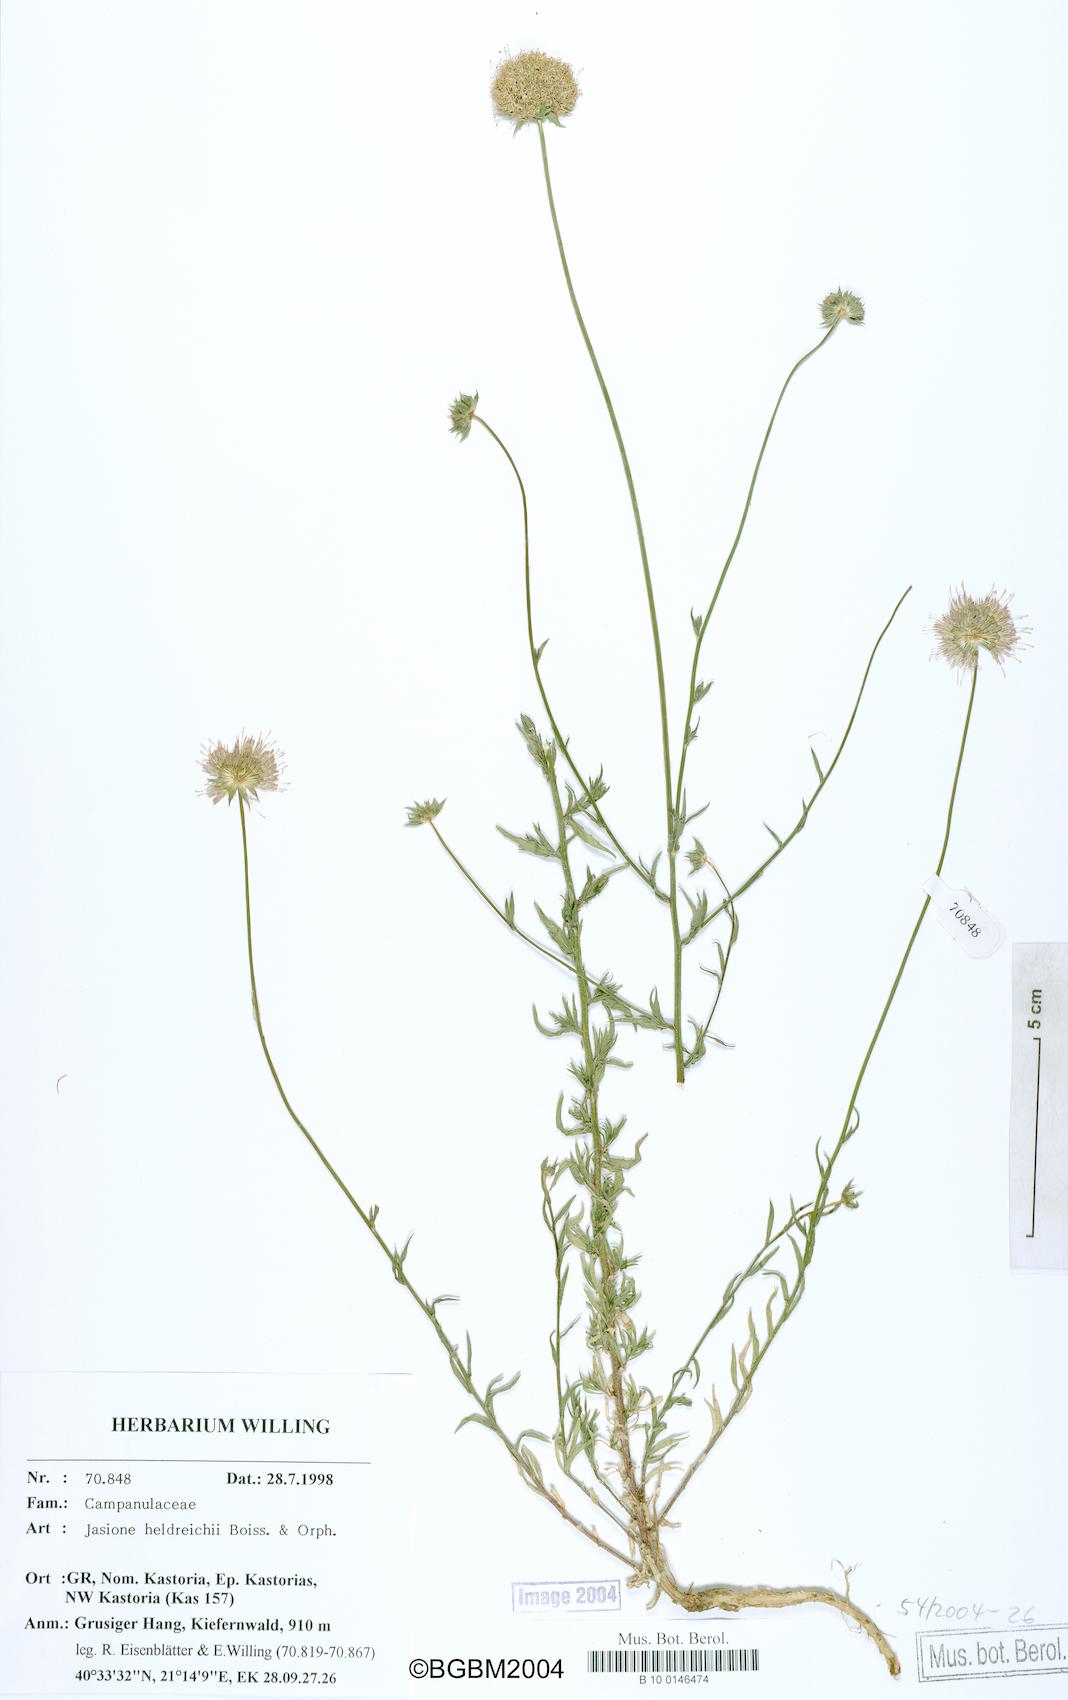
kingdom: Plantae
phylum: Tracheophyta
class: Magnoliopsida
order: Asterales
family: Campanulaceae
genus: Jasione
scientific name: Jasione heldreichii
